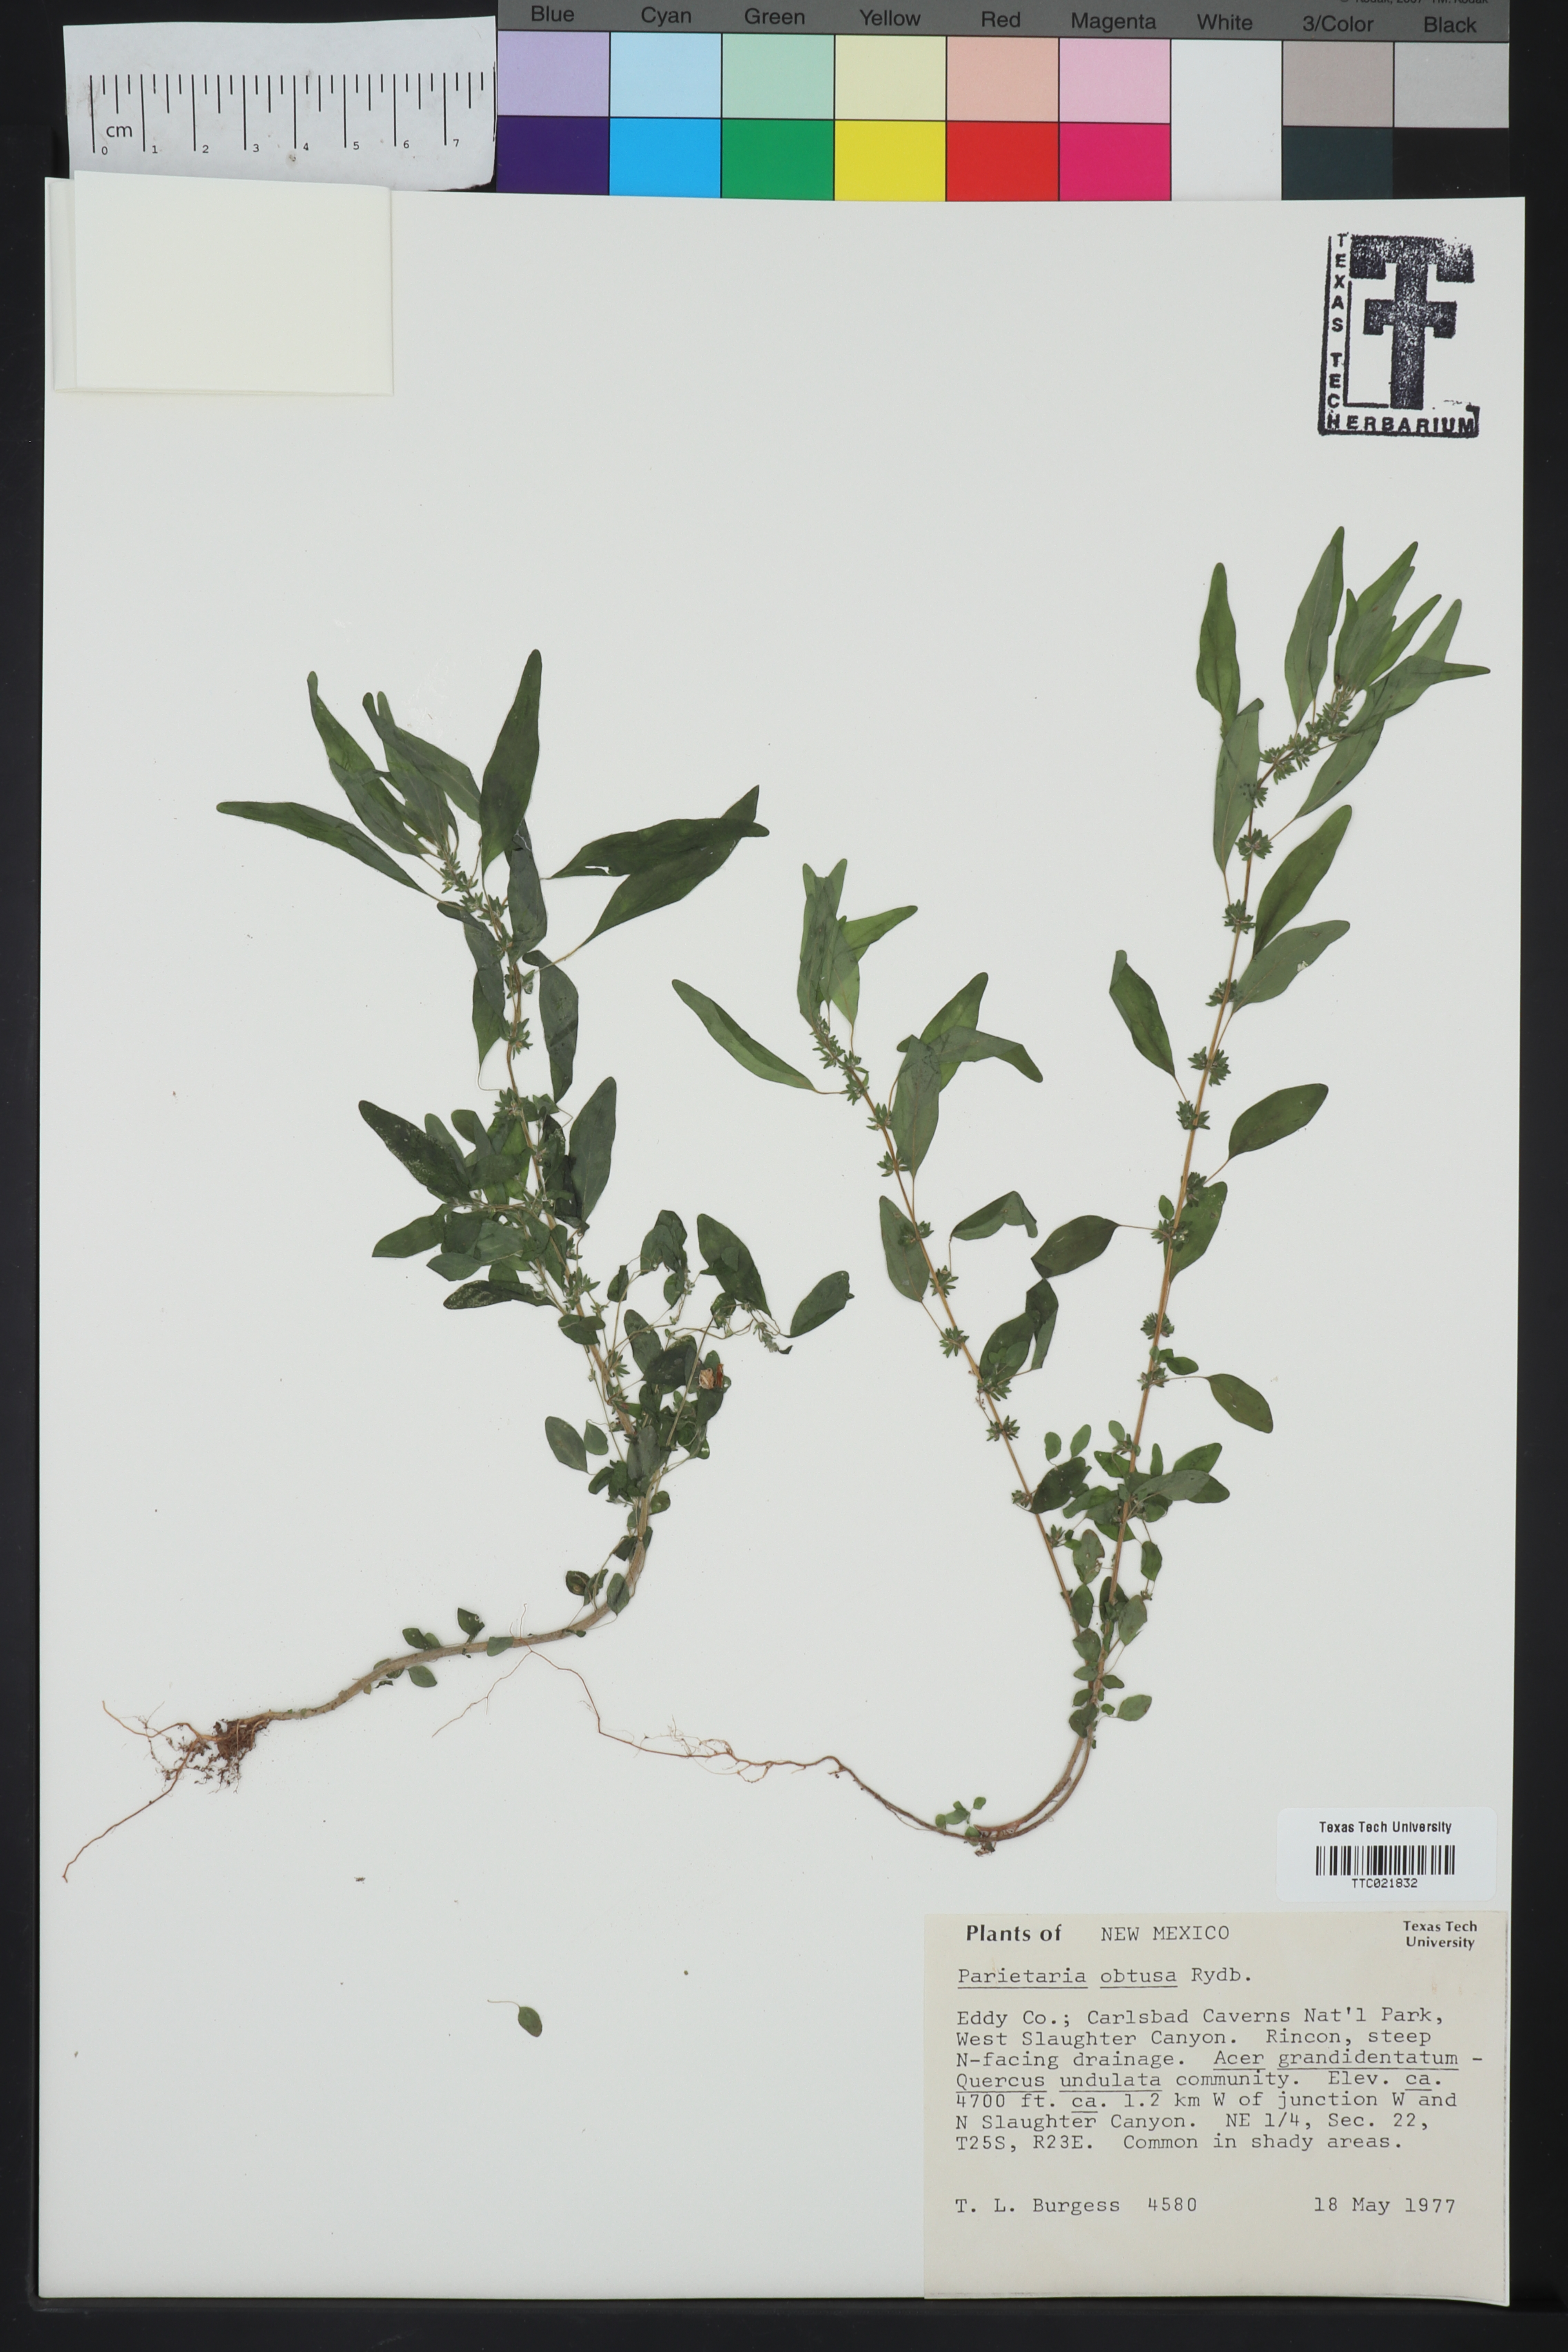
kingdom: Plantae
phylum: Tracheophyta
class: Magnoliopsida
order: Rosales
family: Urticaceae
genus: Parietaria
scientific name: Parietaria pensylvanica
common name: Pennsylvania pellitory
